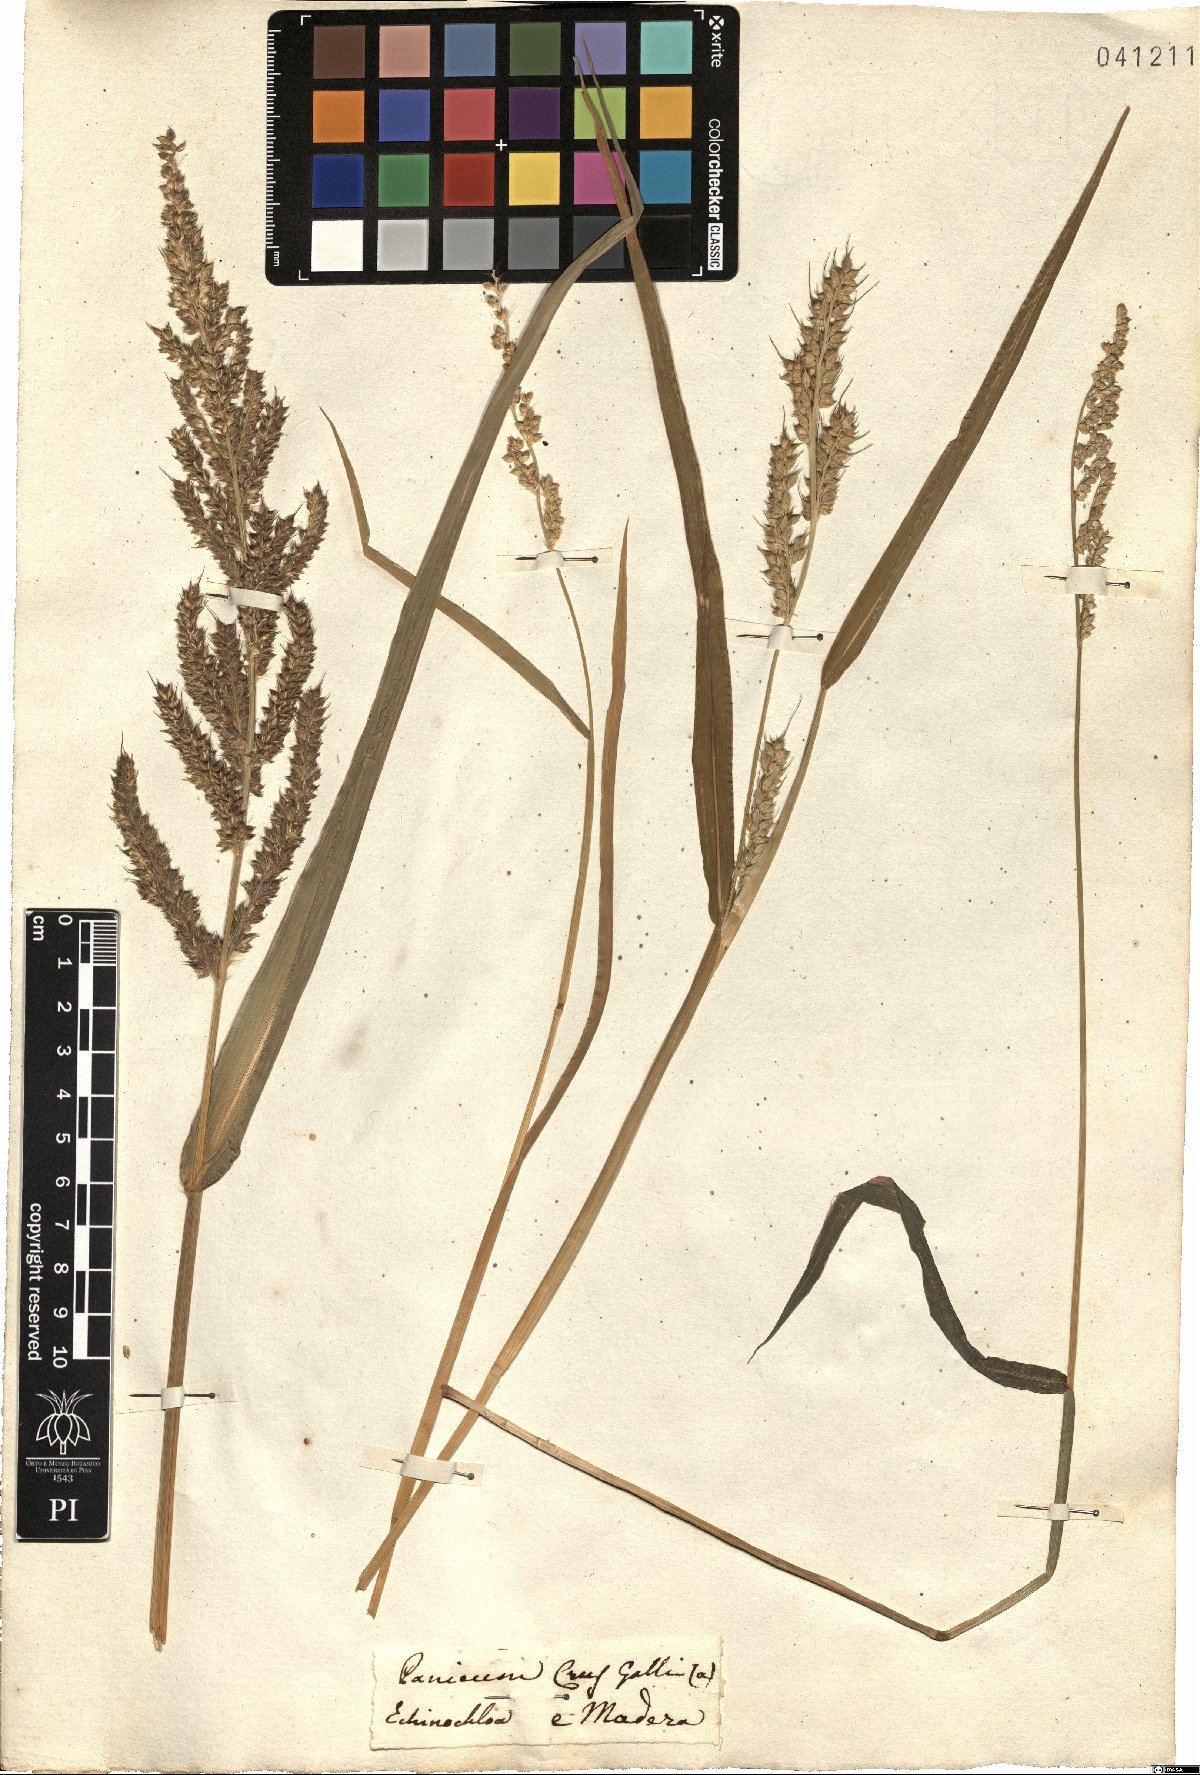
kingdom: Plantae
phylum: Tracheophyta
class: Liliopsida
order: Poales
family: Poaceae
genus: Echinochloa
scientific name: Echinochloa crus-galli
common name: Cockspur
